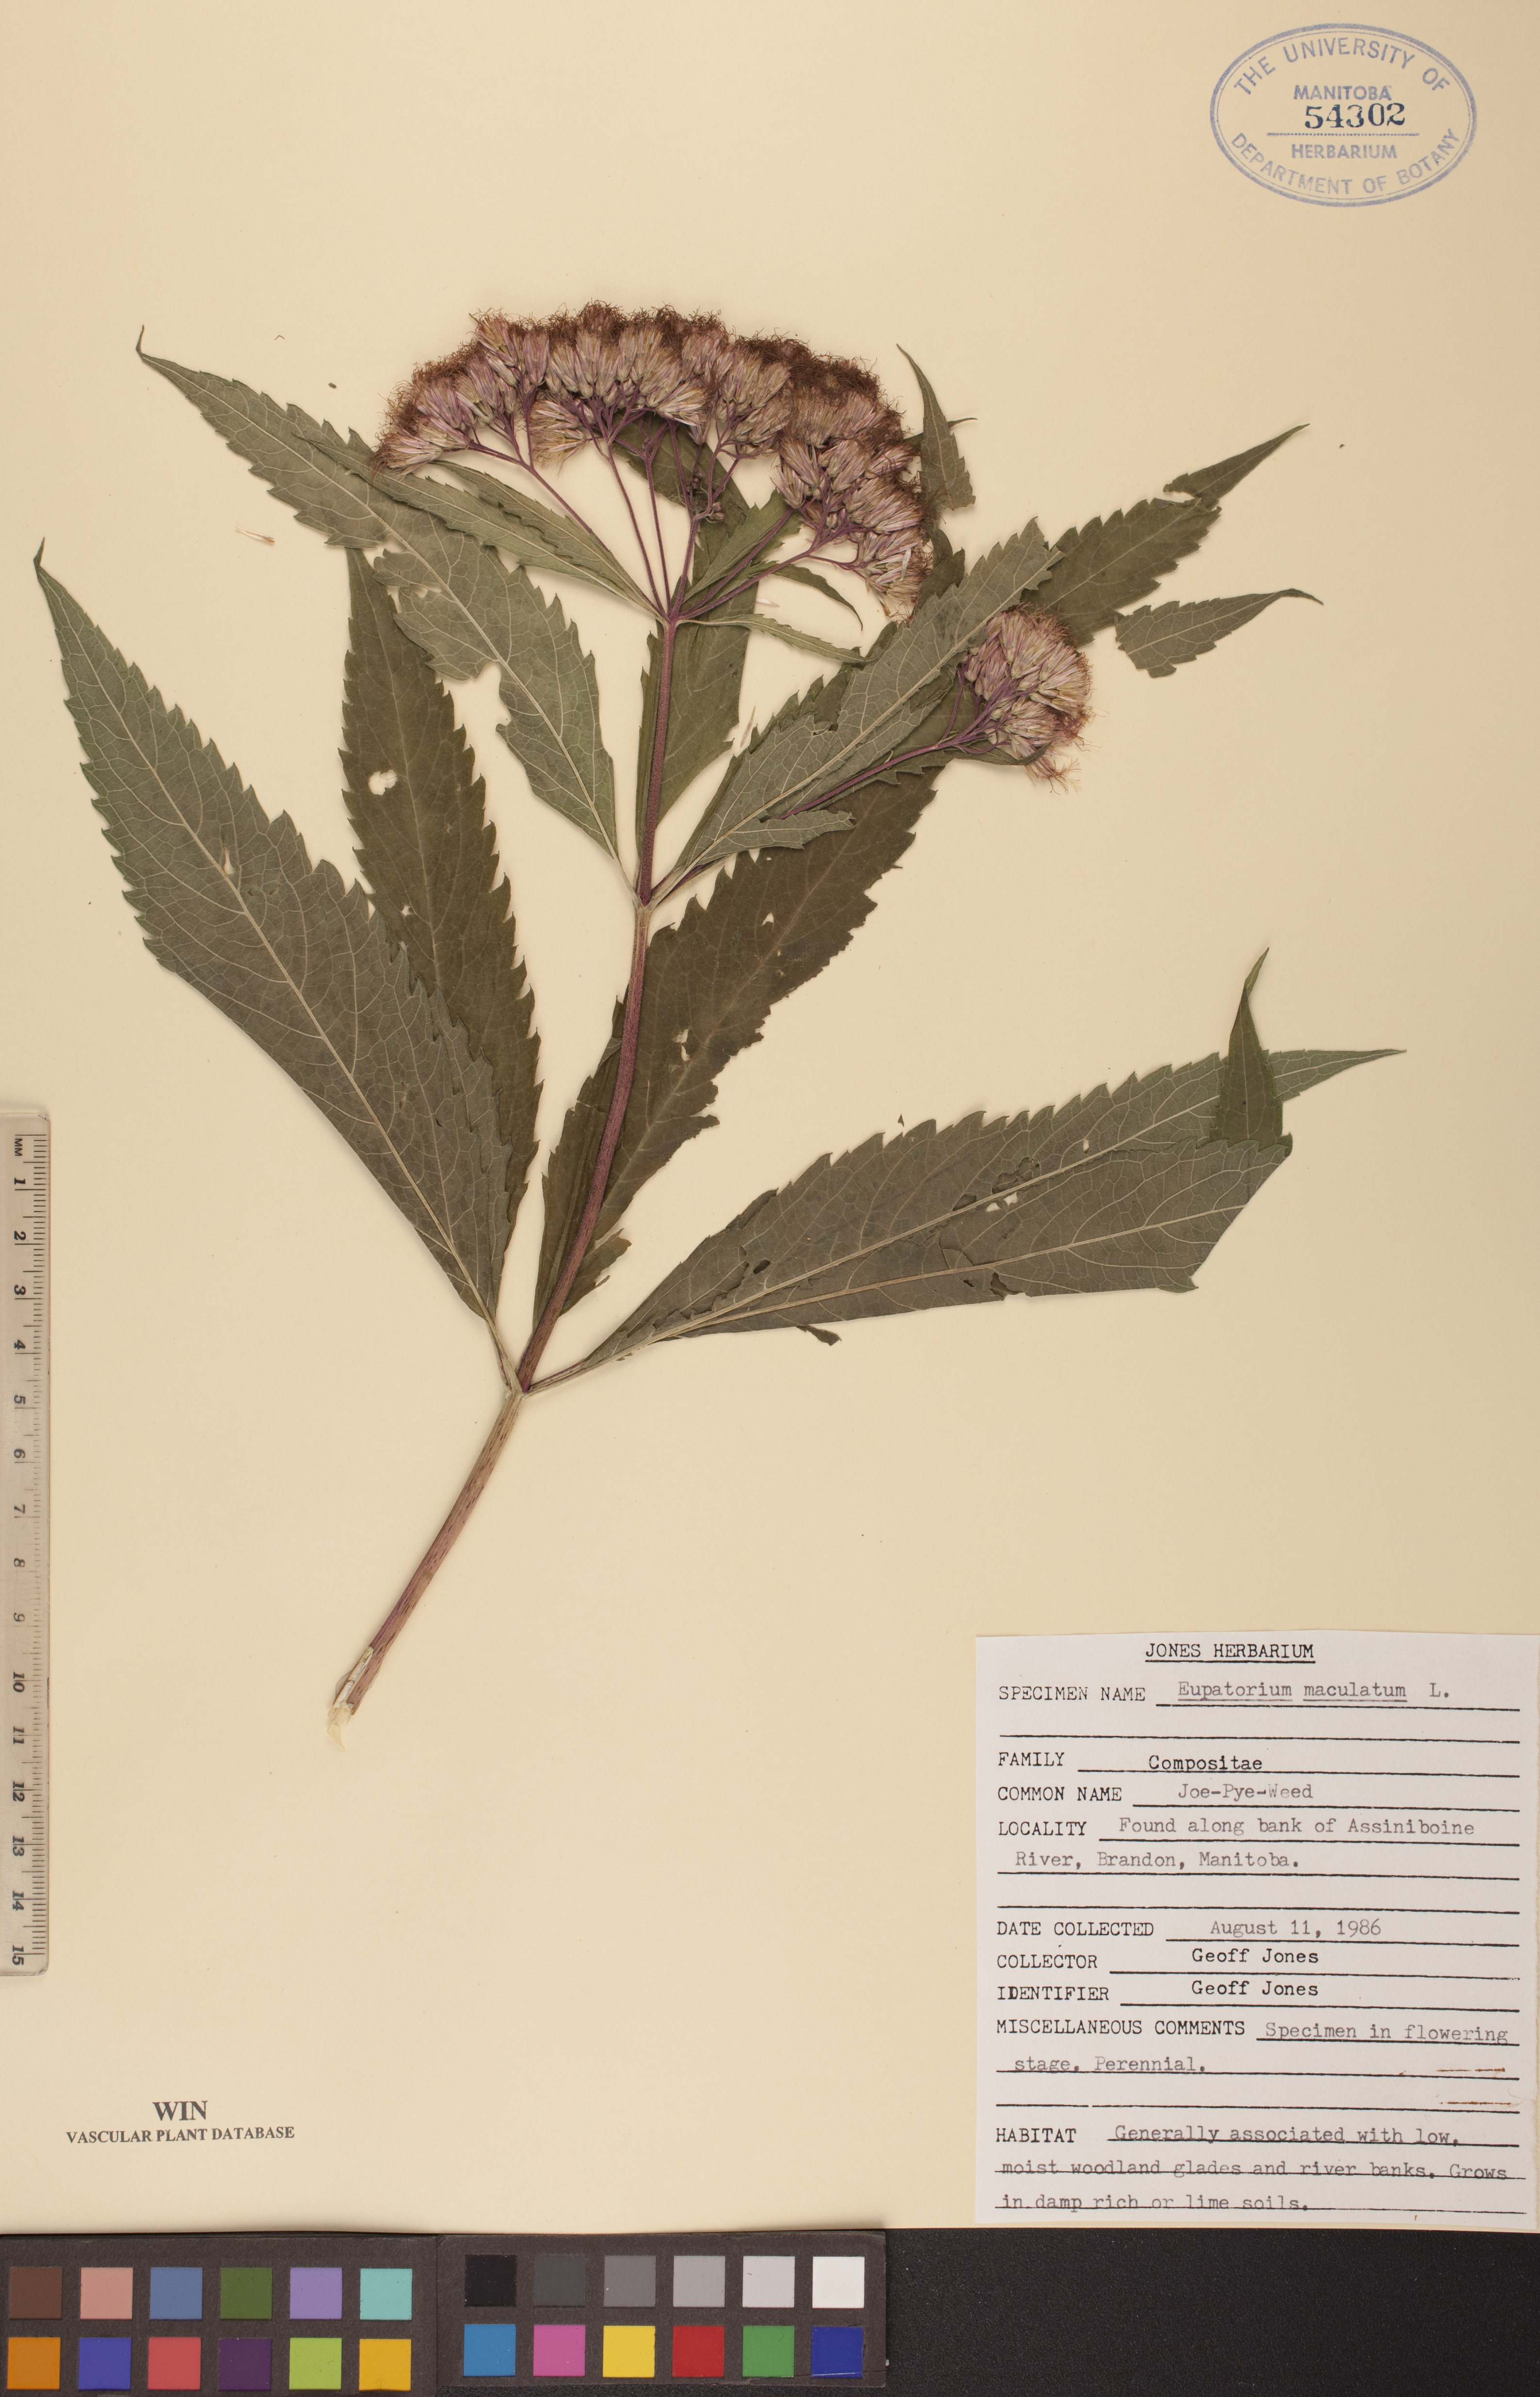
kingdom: Plantae
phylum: Tracheophyta
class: Magnoliopsida
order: Asterales
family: Asteraceae
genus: Eutrochium
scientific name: Eutrochium maculatum
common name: Spotted joe pye weed
